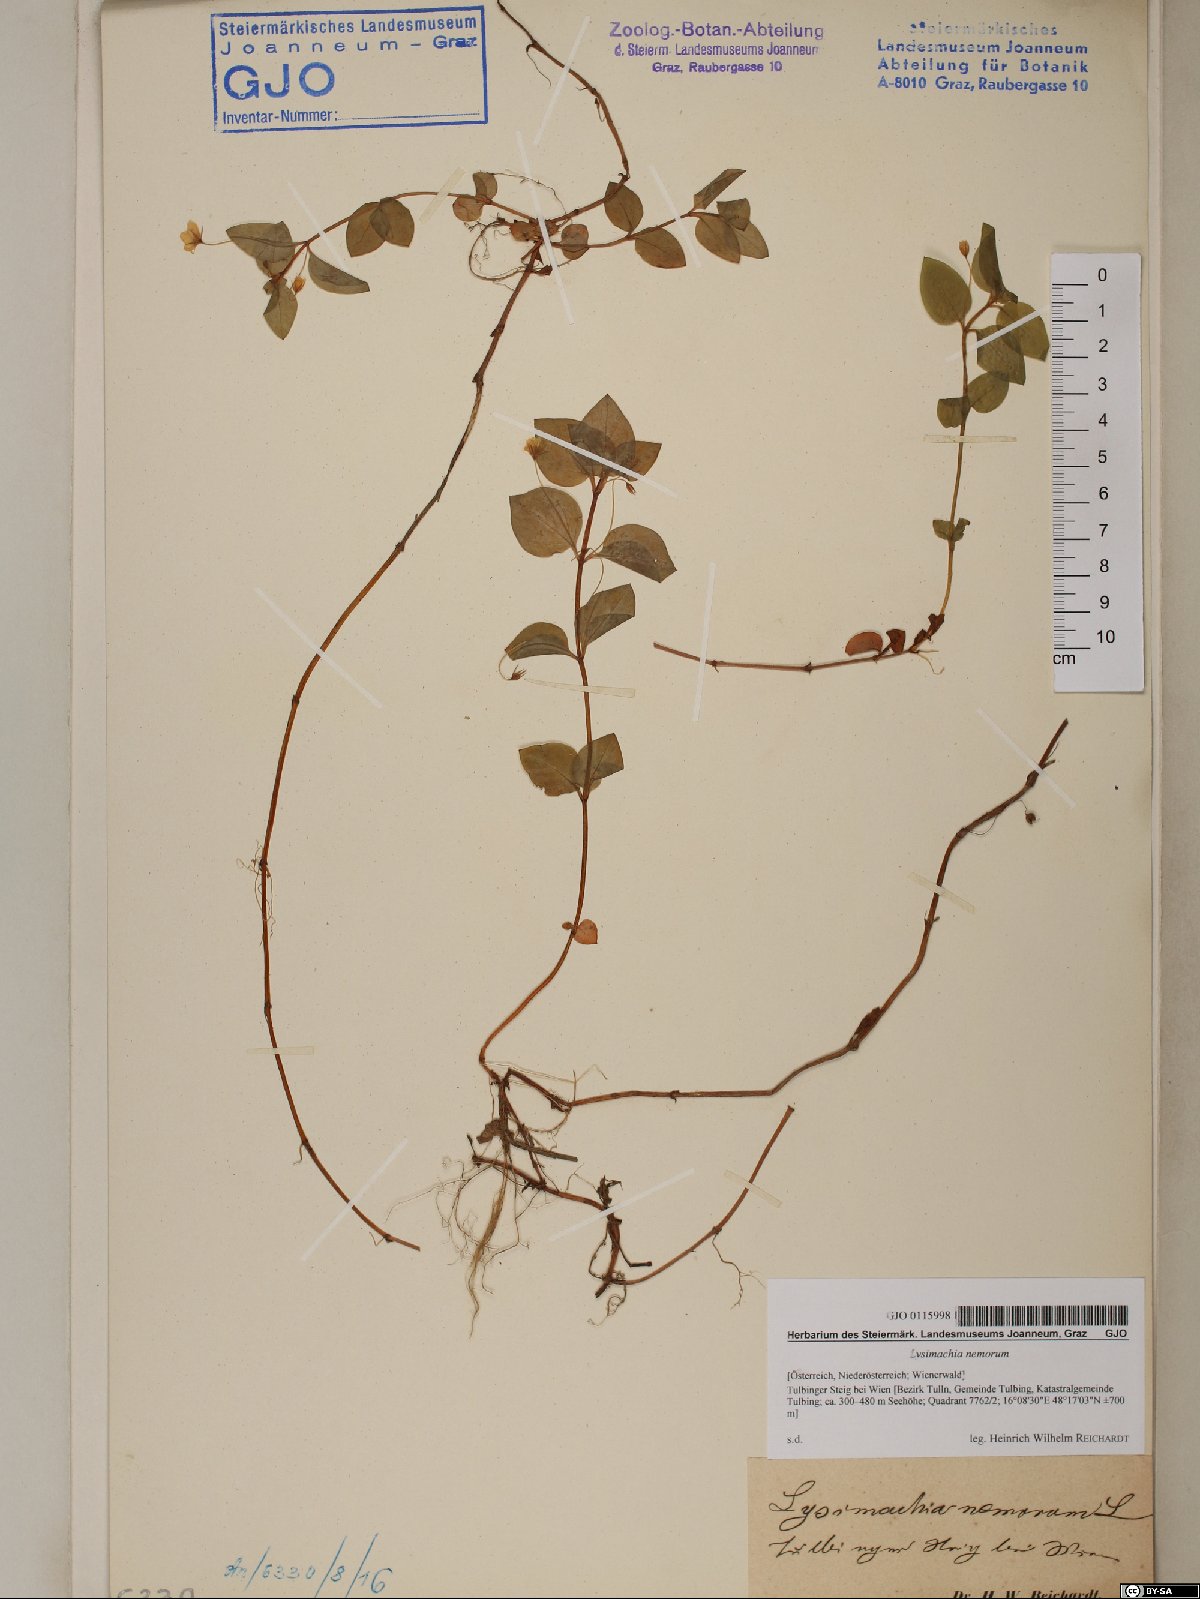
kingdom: Plantae
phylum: Tracheophyta
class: Magnoliopsida
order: Ericales
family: Primulaceae
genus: Lysimachia
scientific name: Lysimachia nemorum
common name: Yellow pimpernel
